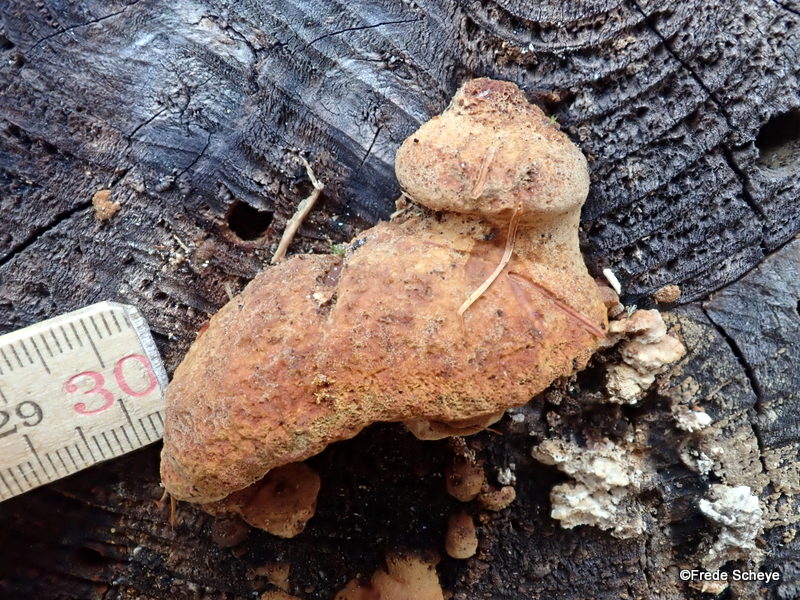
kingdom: Fungi
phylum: Basidiomycota
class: Agaricomycetes
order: Gloeophyllales
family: Gloeophyllaceae
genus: Gloeophyllum
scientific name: Gloeophyllum odoratum
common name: duftende korkhat
